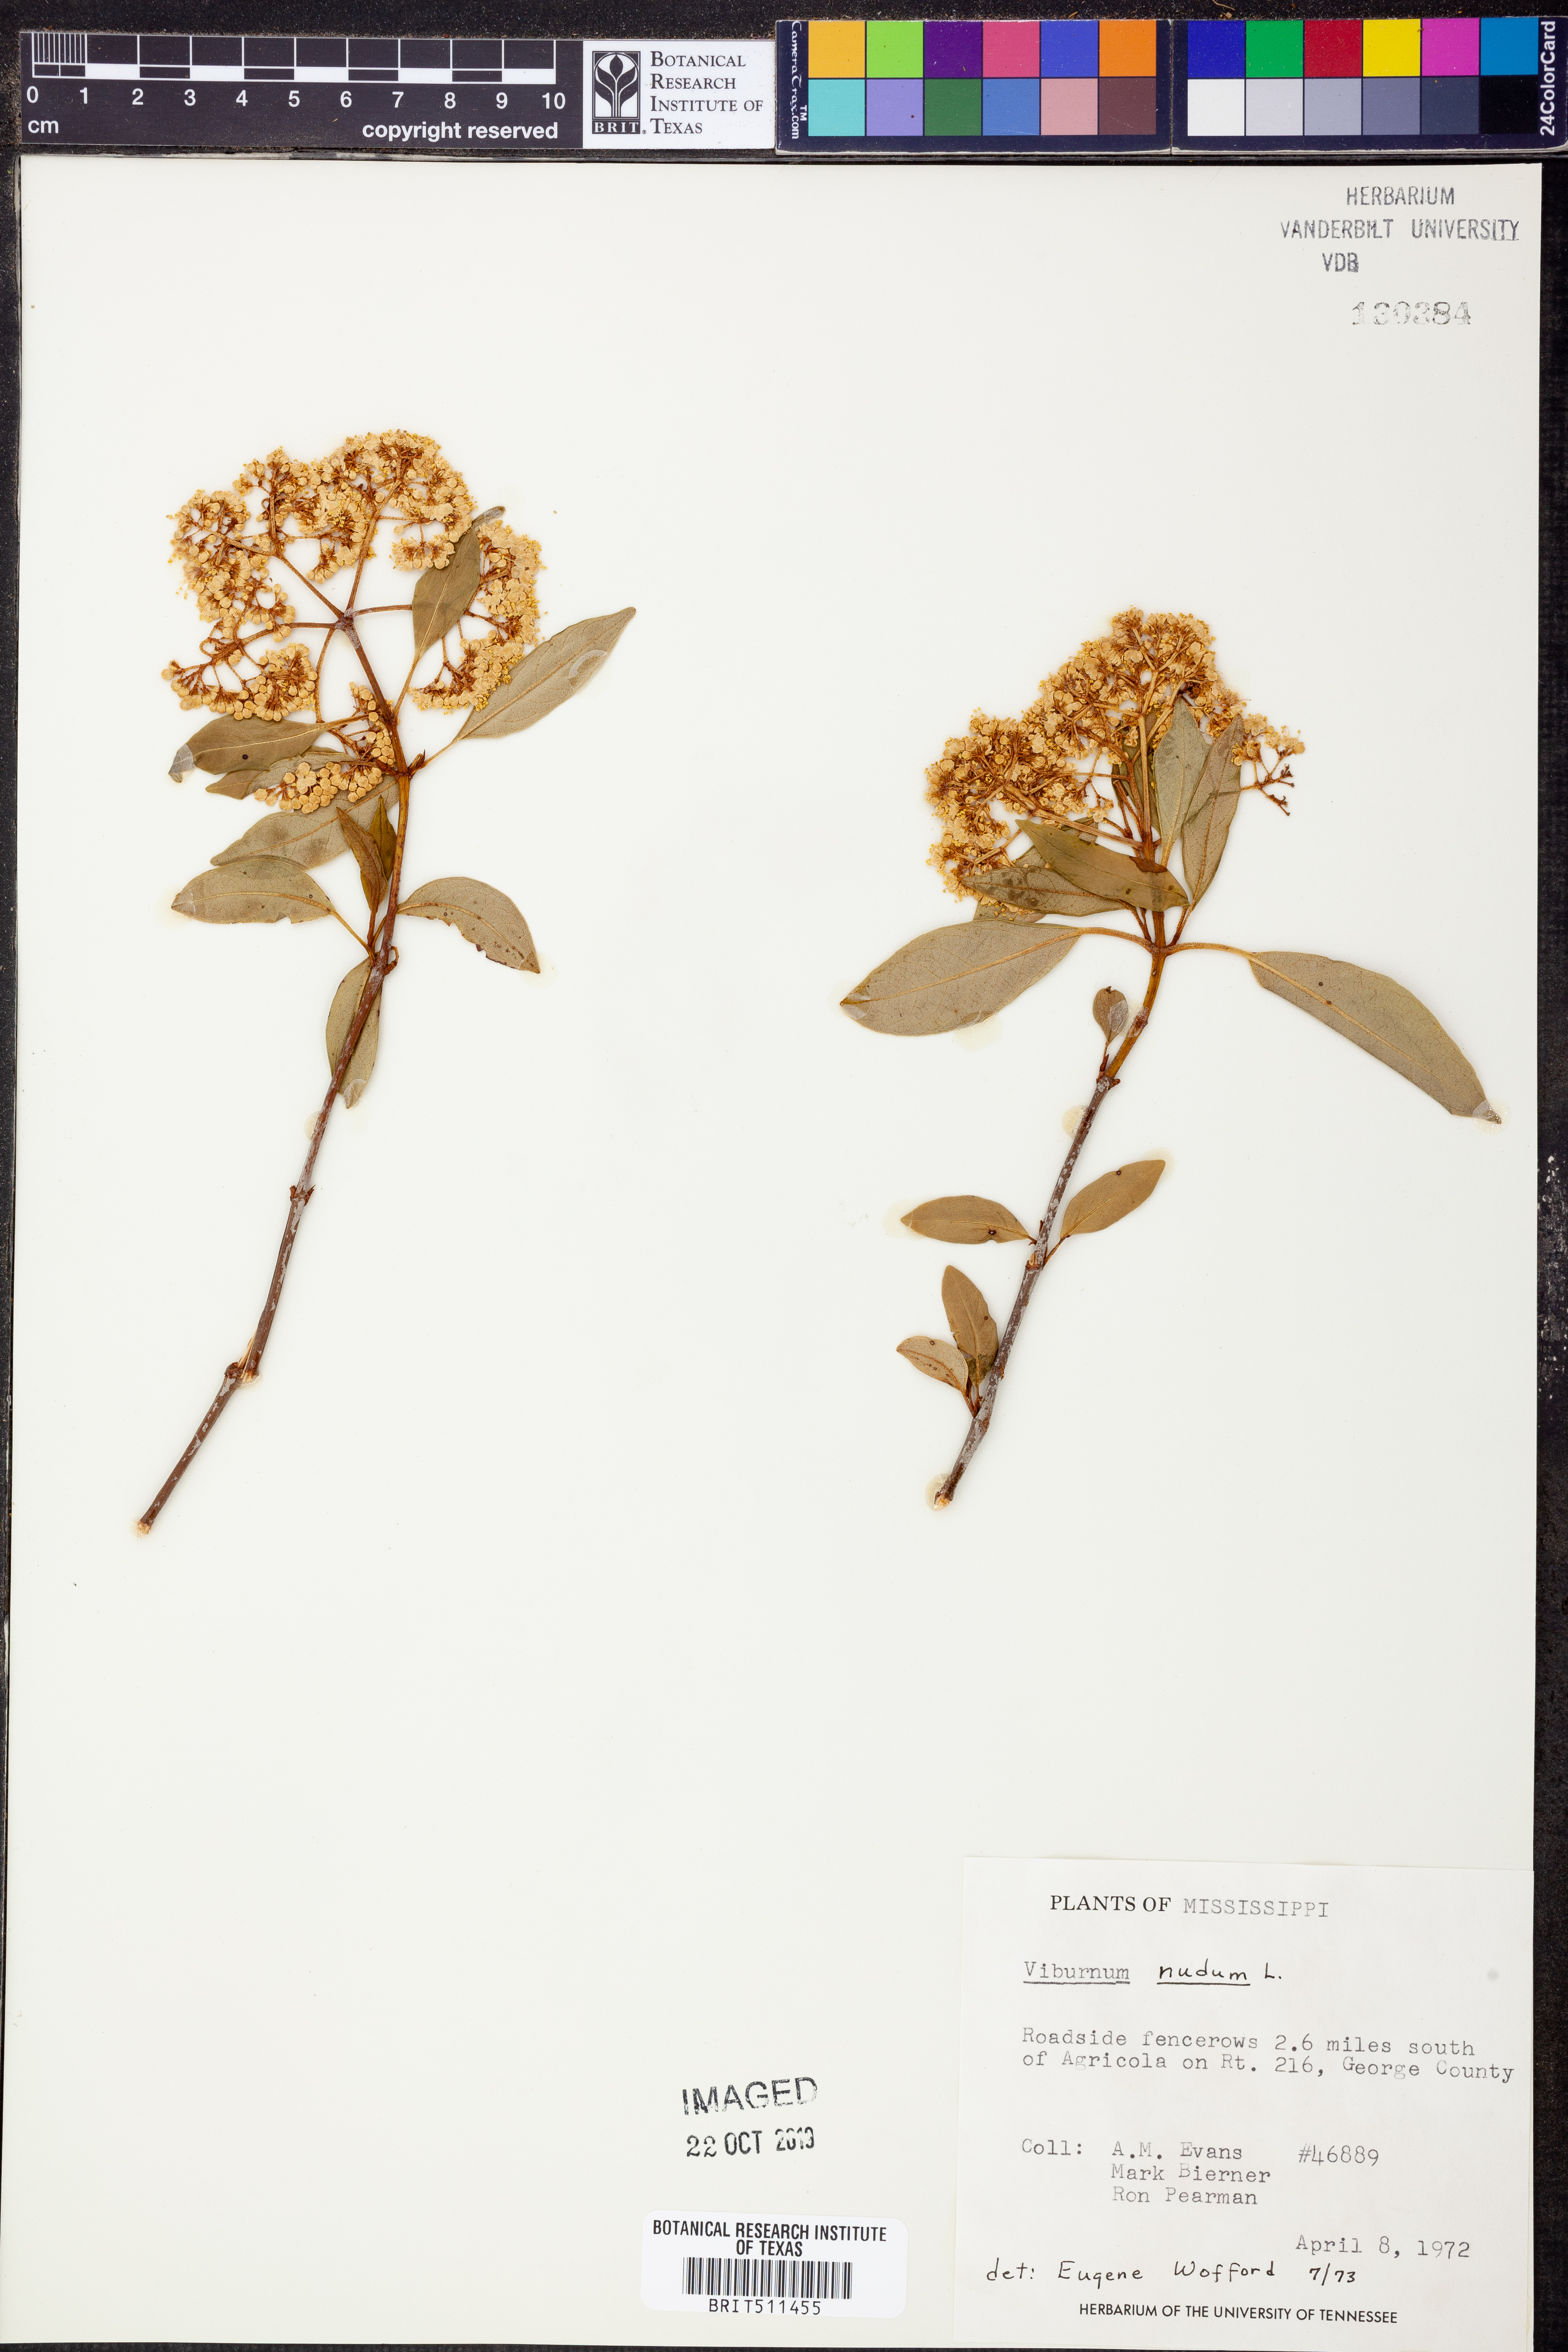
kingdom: Plantae
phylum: Tracheophyta
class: Magnoliopsida
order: Dipsacales
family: Viburnaceae
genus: Viburnum
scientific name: Viburnum nudum
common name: Possum haw
